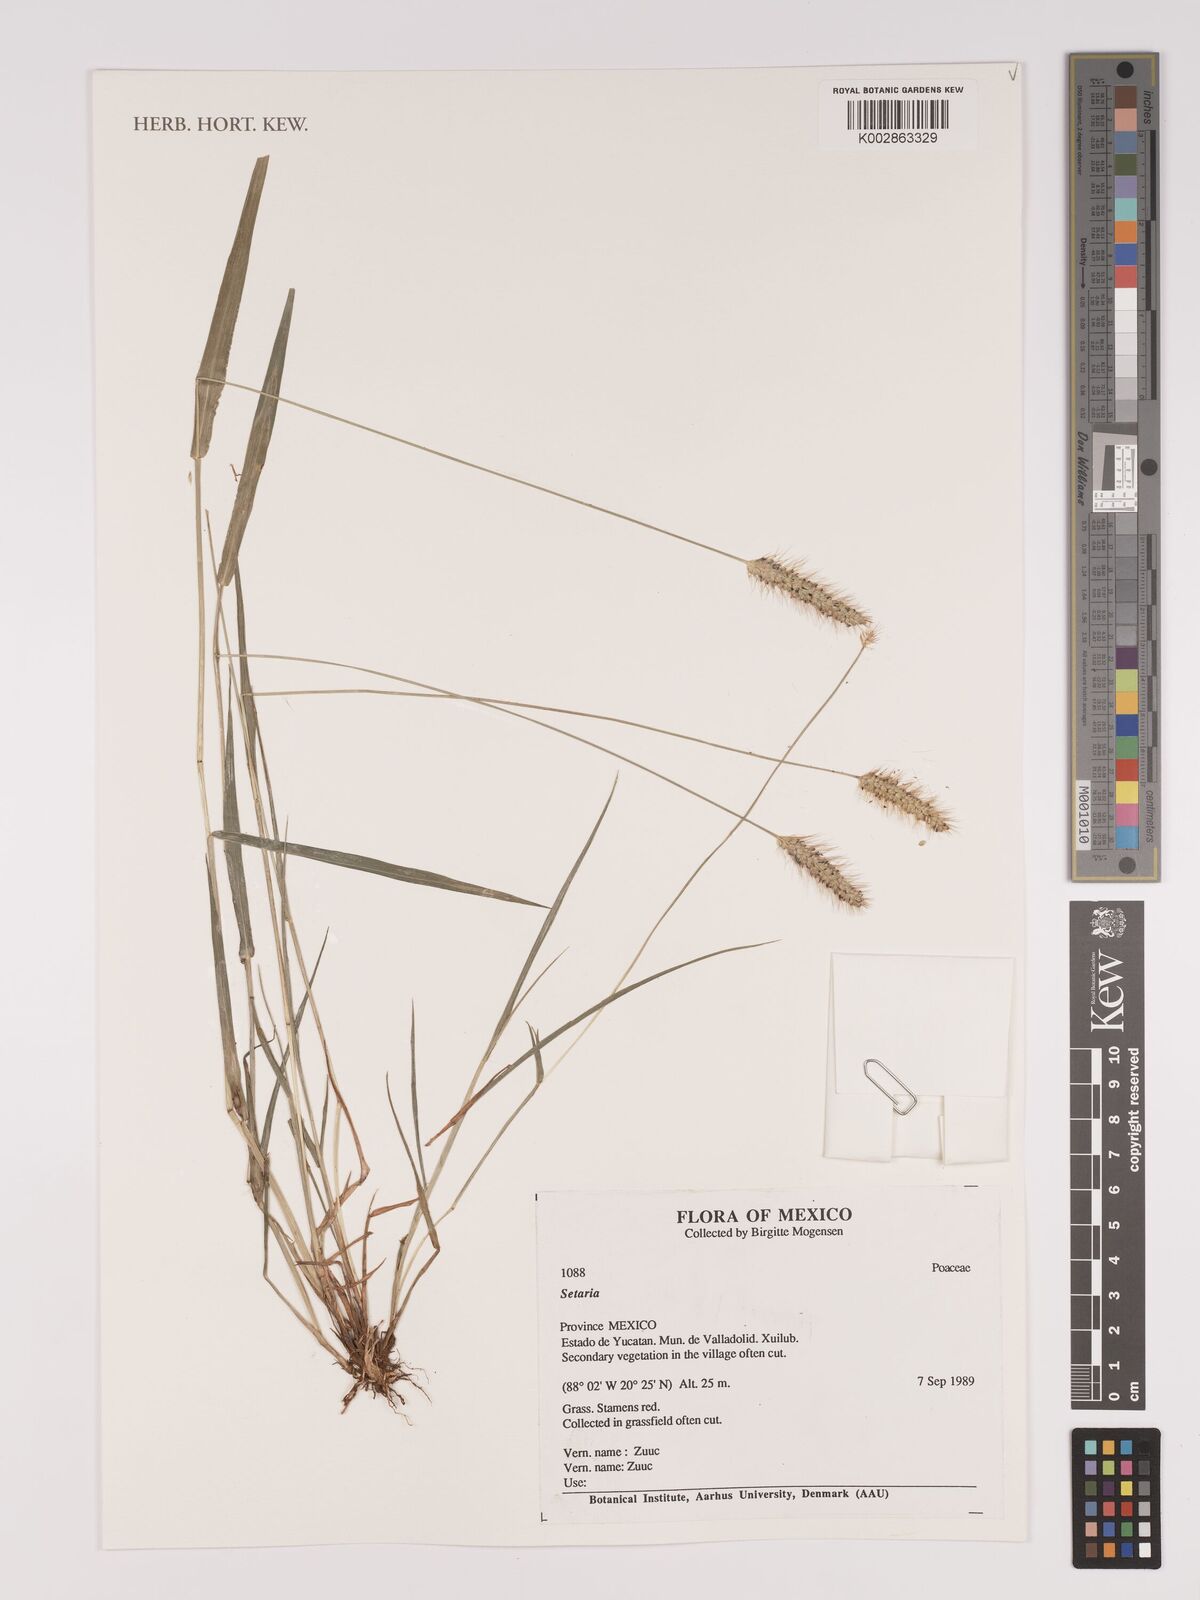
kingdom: Plantae
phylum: Tracheophyta
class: Liliopsida
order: Poales
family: Poaceae
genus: Setaria
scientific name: Setaria
